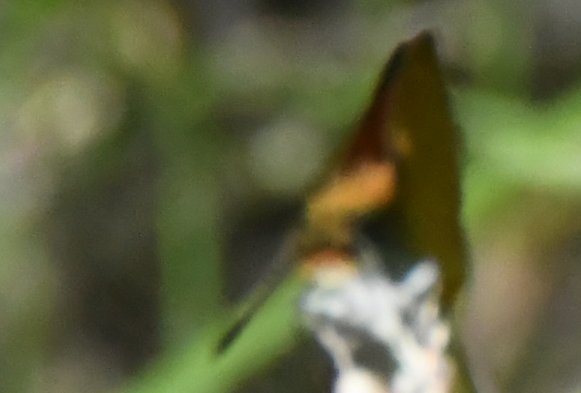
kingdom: Animalia
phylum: Arthropoda
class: Insecta
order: Lepidoptera
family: Hesperiidae
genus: Ancyloxypha
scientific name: Ancyloxypha numitor
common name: Least Skipper
